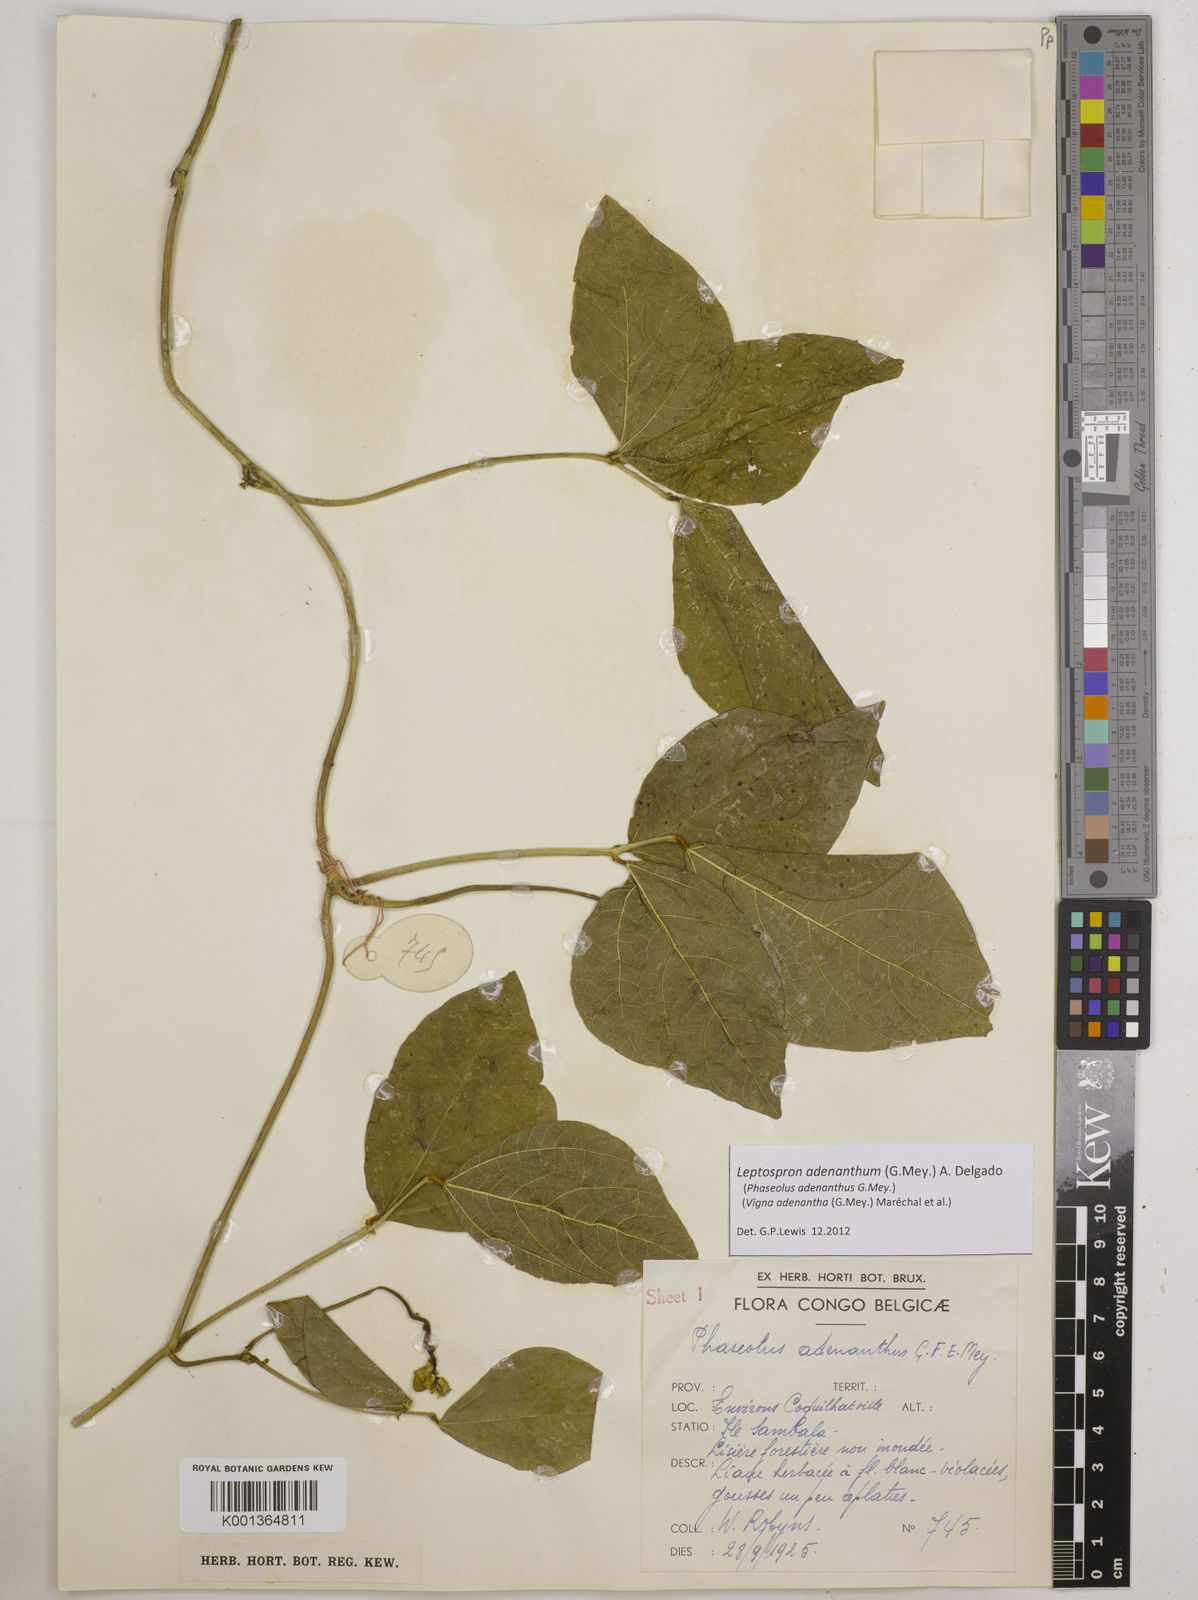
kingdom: Plantae
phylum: Tracheophyta
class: Magnoliopsida
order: Fabales
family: Fabaceae
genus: Leptospron
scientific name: Leptospron adenanthum
